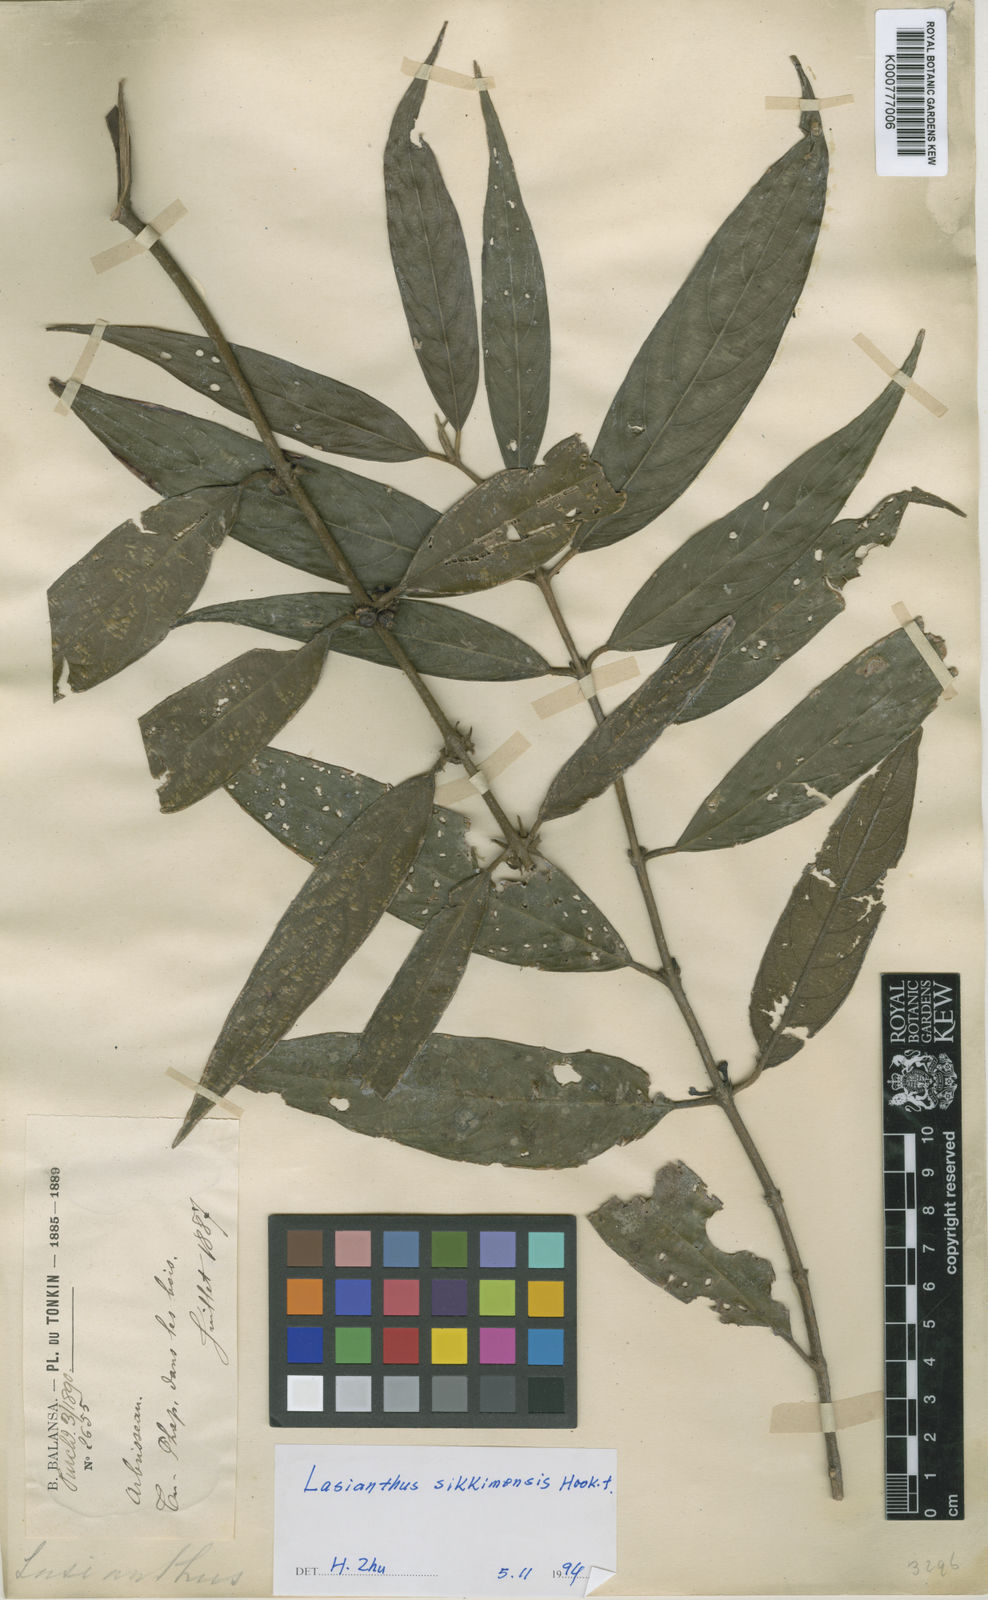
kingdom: Plantae
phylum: Tracheophyta
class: Magnoliopsida
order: Gentianales
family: Rubiaceae
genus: Lasianthus
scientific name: Lasianthus sikkimensis
